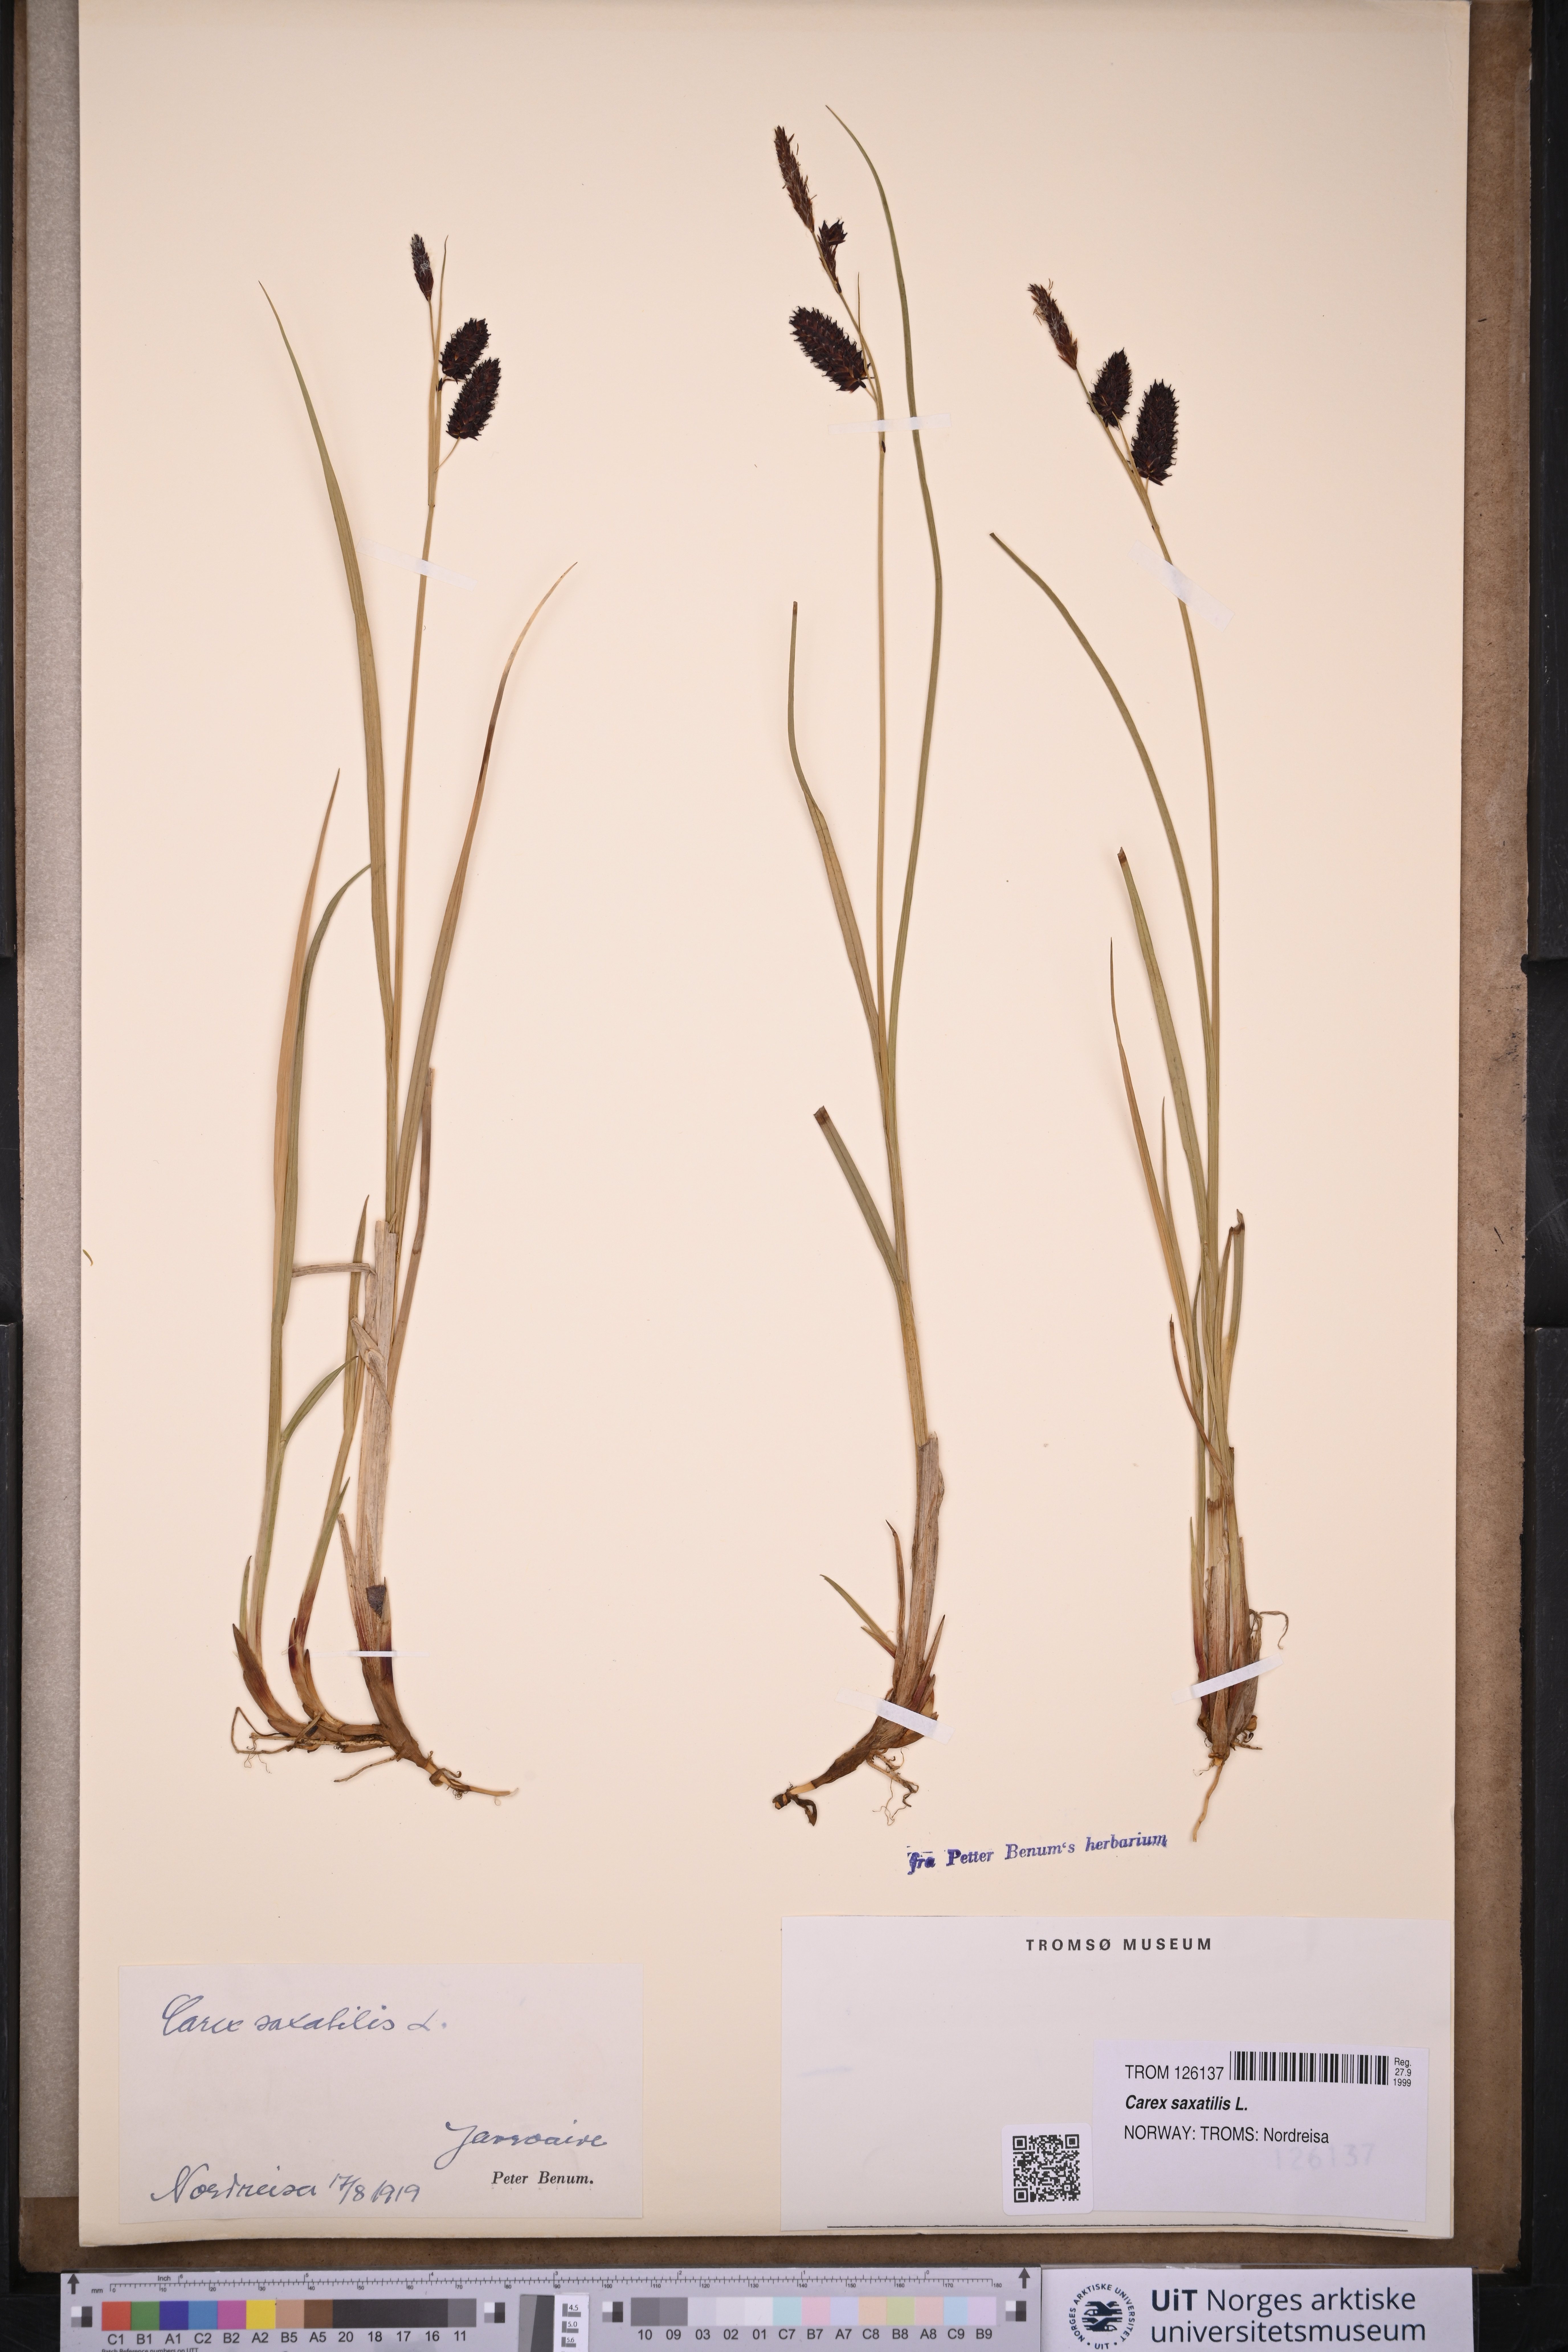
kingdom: Plantae
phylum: Tracheophyta
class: Liliopsida
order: Poales
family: Cyperaceae
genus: Carex
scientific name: Carex saxatilis
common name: Russet sedge
